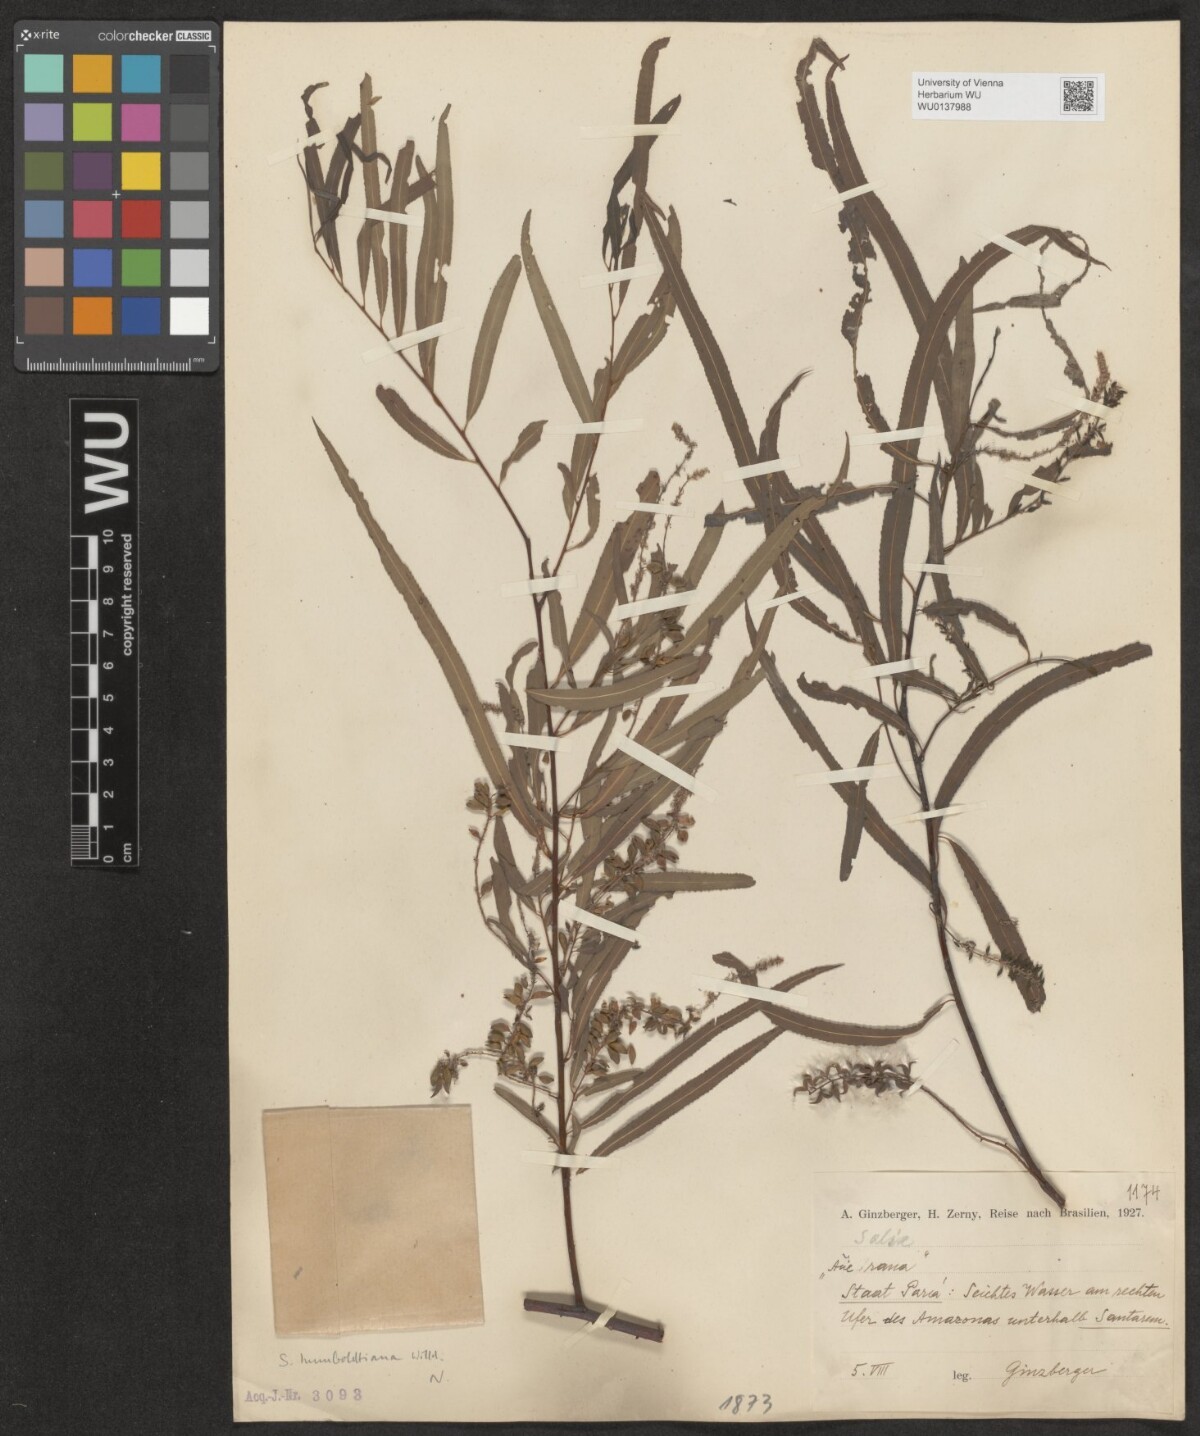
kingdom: Plantae
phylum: Tracheophyta
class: Magnoliopsida
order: Malpighiales
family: Salicaceae
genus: Salix
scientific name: Salix humboldtiana
